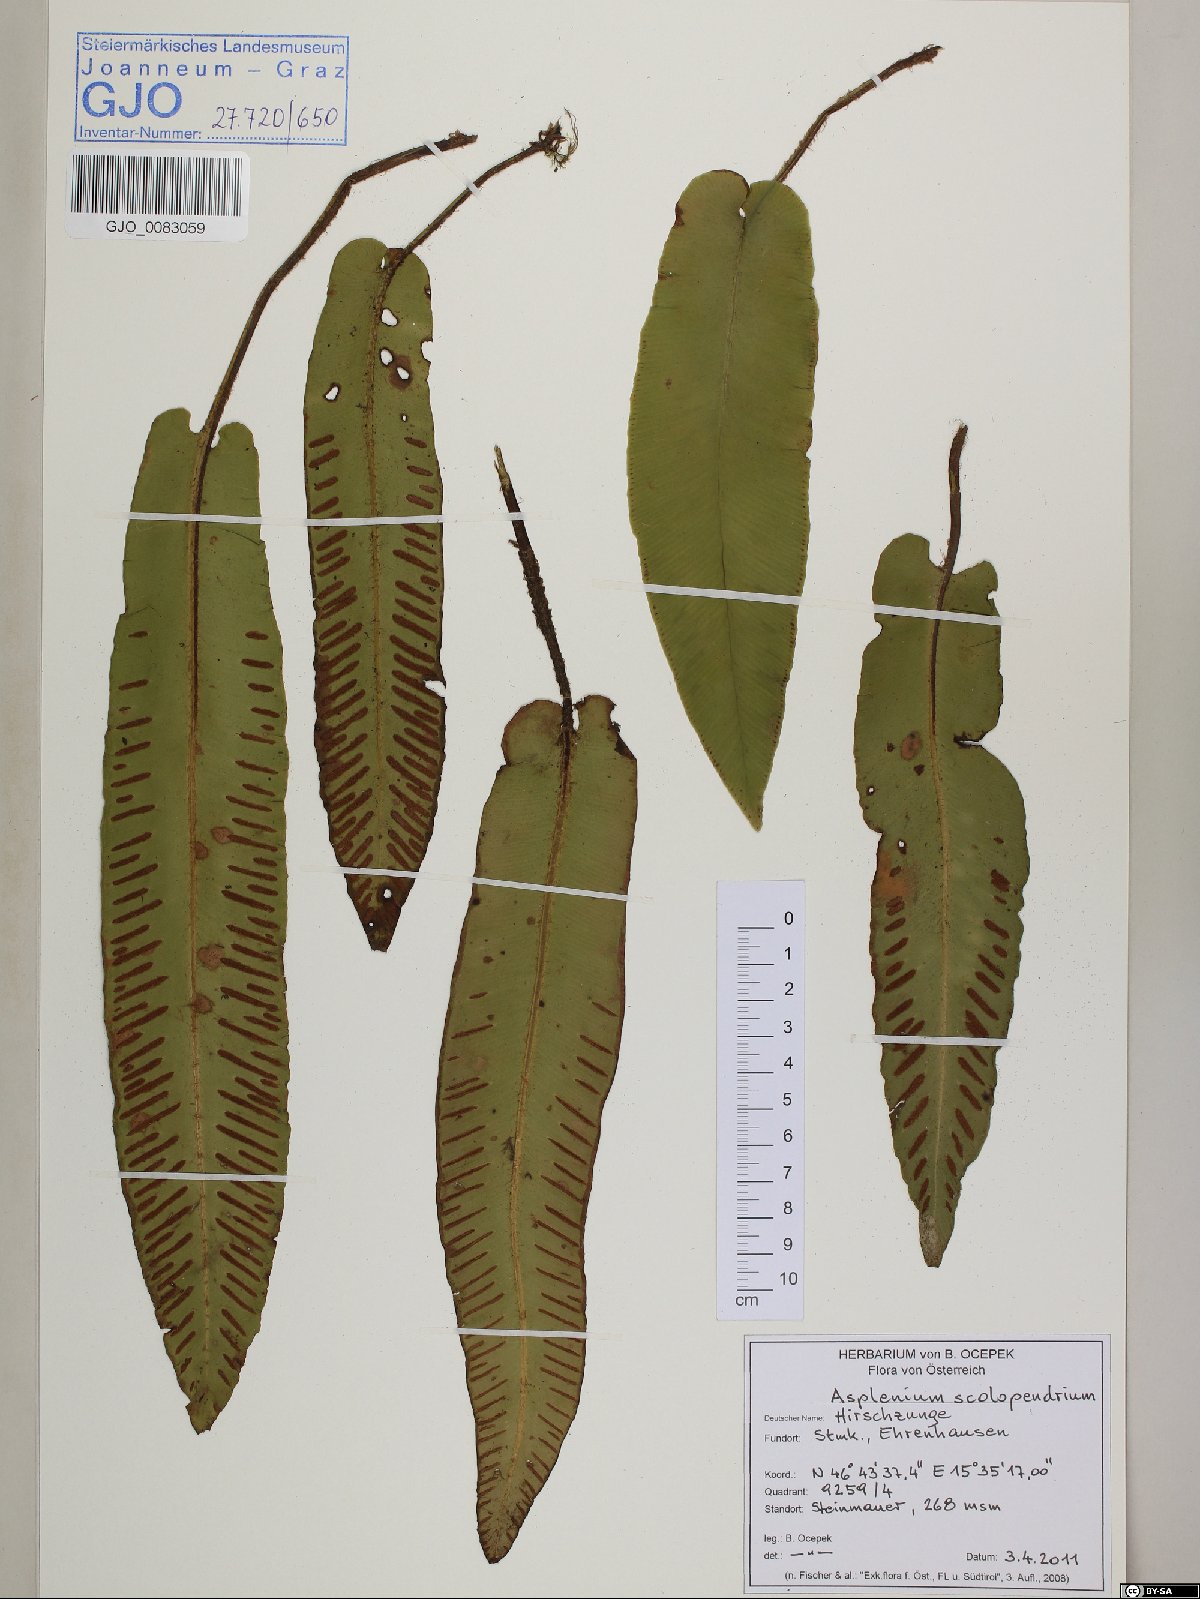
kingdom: Plantae
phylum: Tracheophyta
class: Polypodiopsida
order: Polypodiales
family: Aspleniaceae
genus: Asplenium
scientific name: Asplenium scolopendrium
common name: Hart's-tongue fern
